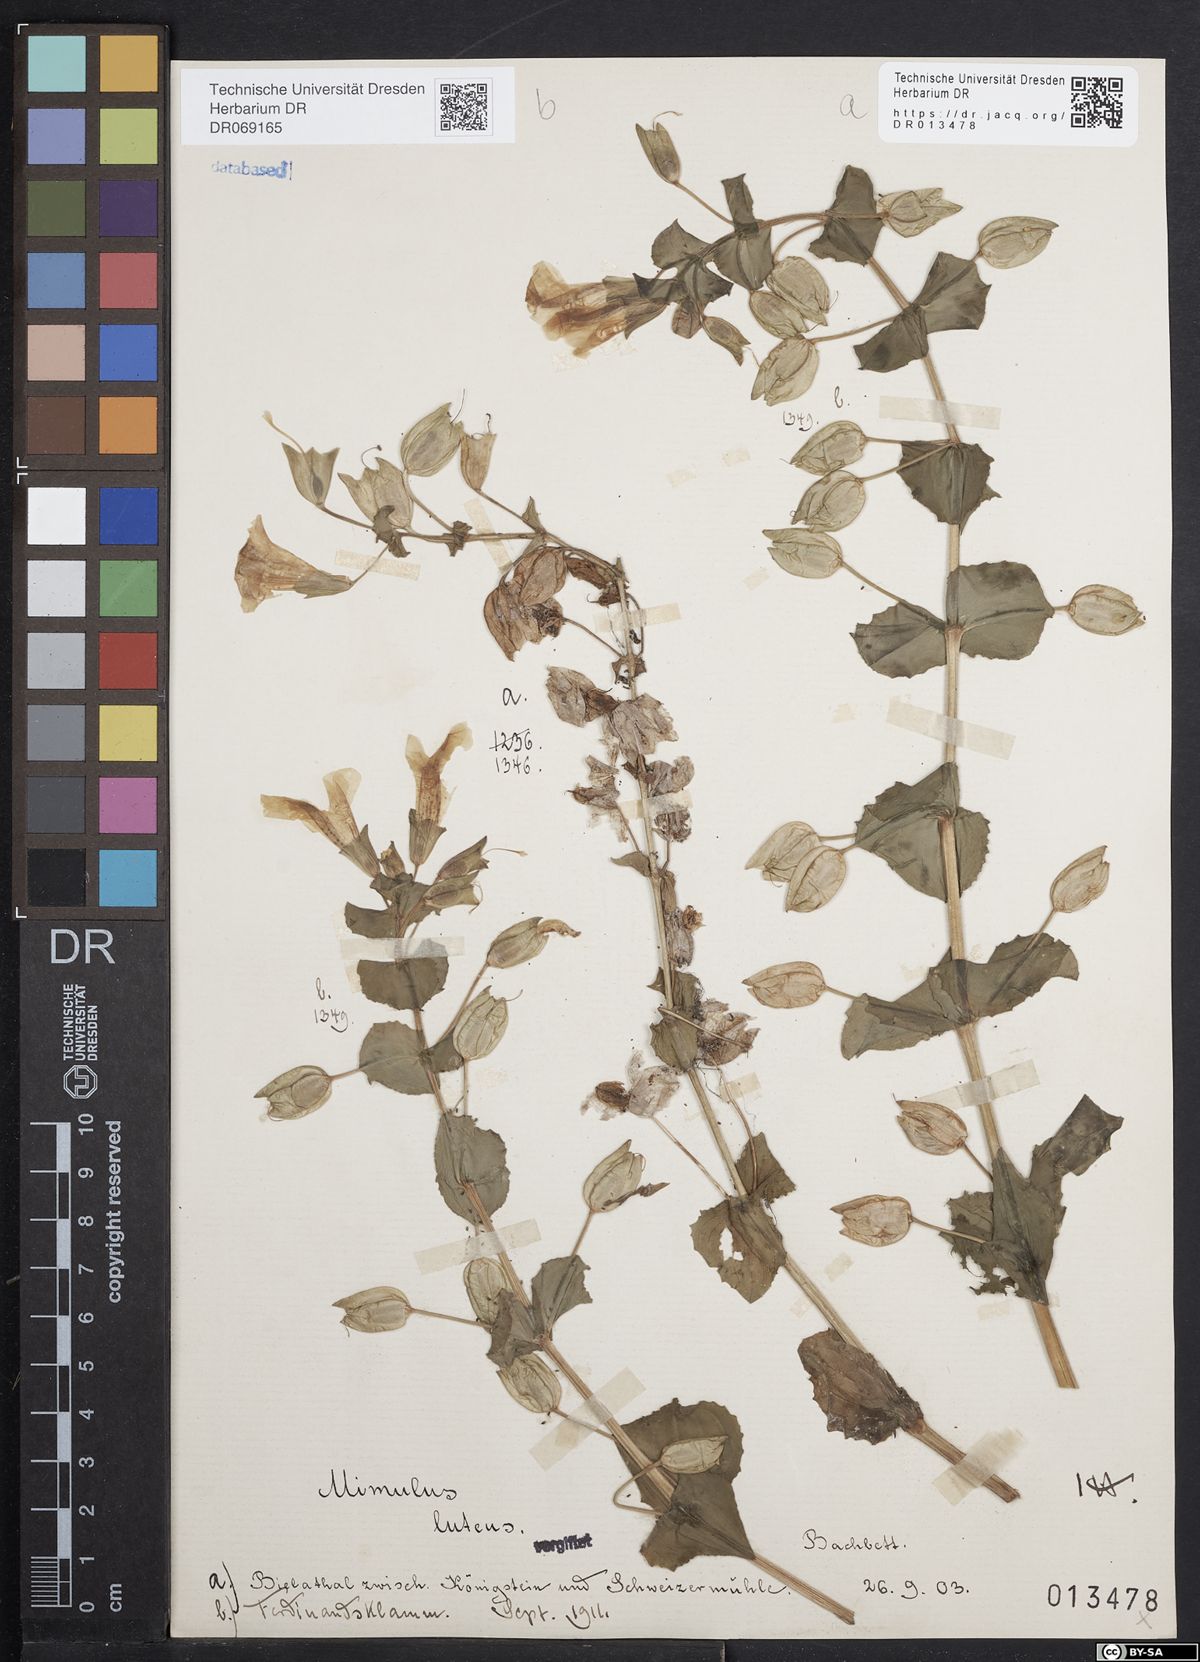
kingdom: Plantae
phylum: Tracheophyta
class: Magnoliopsida
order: Lamiales
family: Phrymaceae
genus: Erythranthe
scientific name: Erythranthe guttata
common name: Monkeyflower
